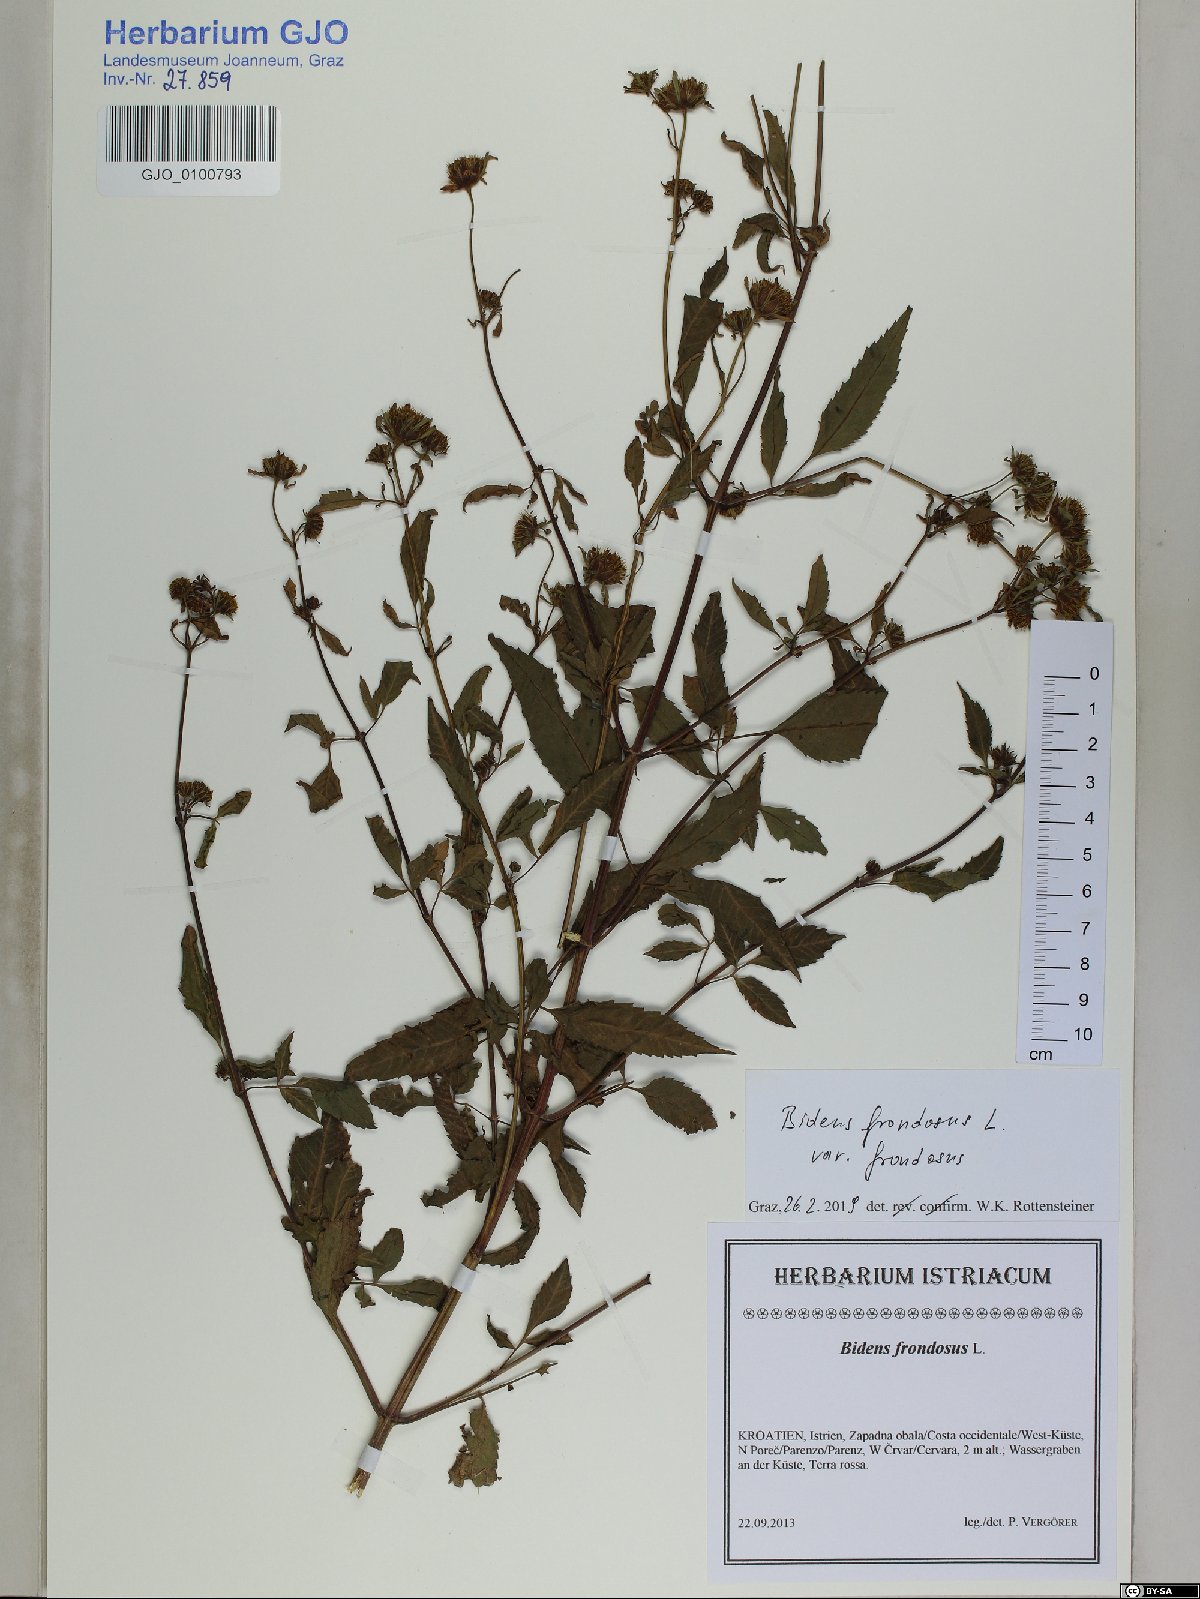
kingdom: Plantae
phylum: Tracheophyta
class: Magnoliopsida
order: Asterales
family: Asteraceae
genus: Bidens
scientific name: Bidens frondosa
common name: Beggarticks
